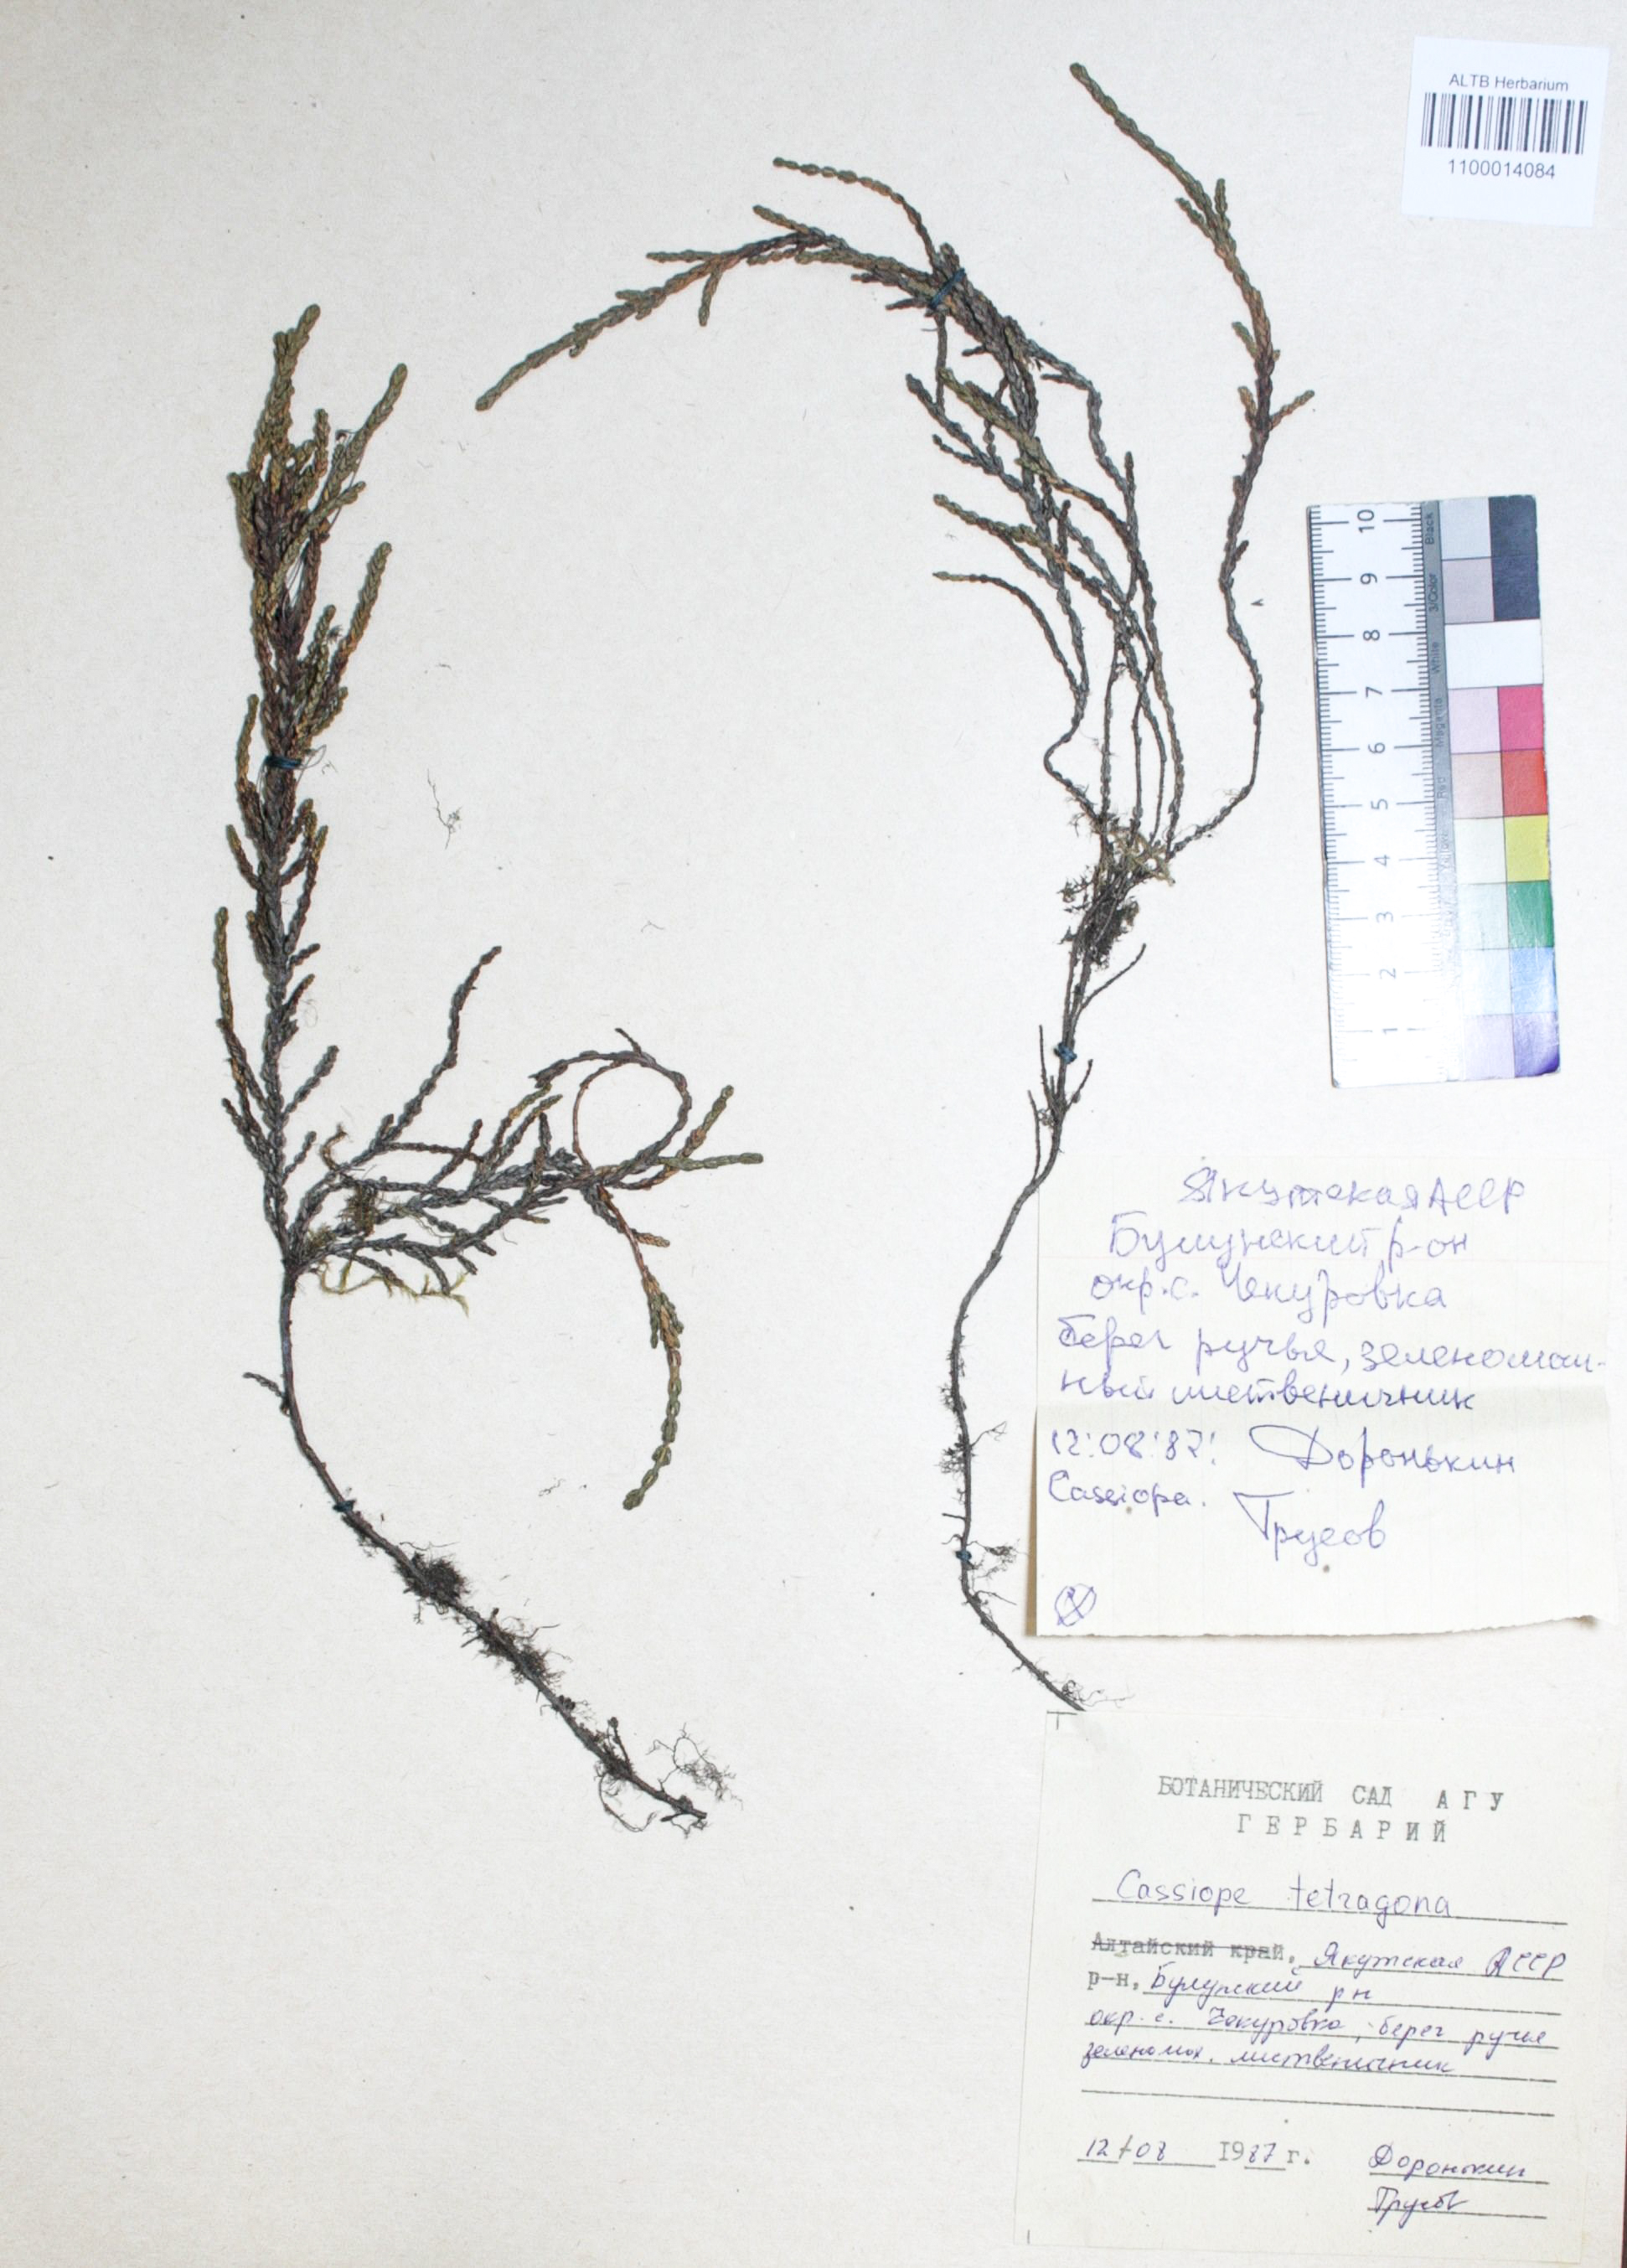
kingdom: Plantae
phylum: Tracheophyta
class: Magnoliopsida
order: Ericales
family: Ericaceae
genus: Cassiope
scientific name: Cassiope tetragona
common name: Arctic bell heather
